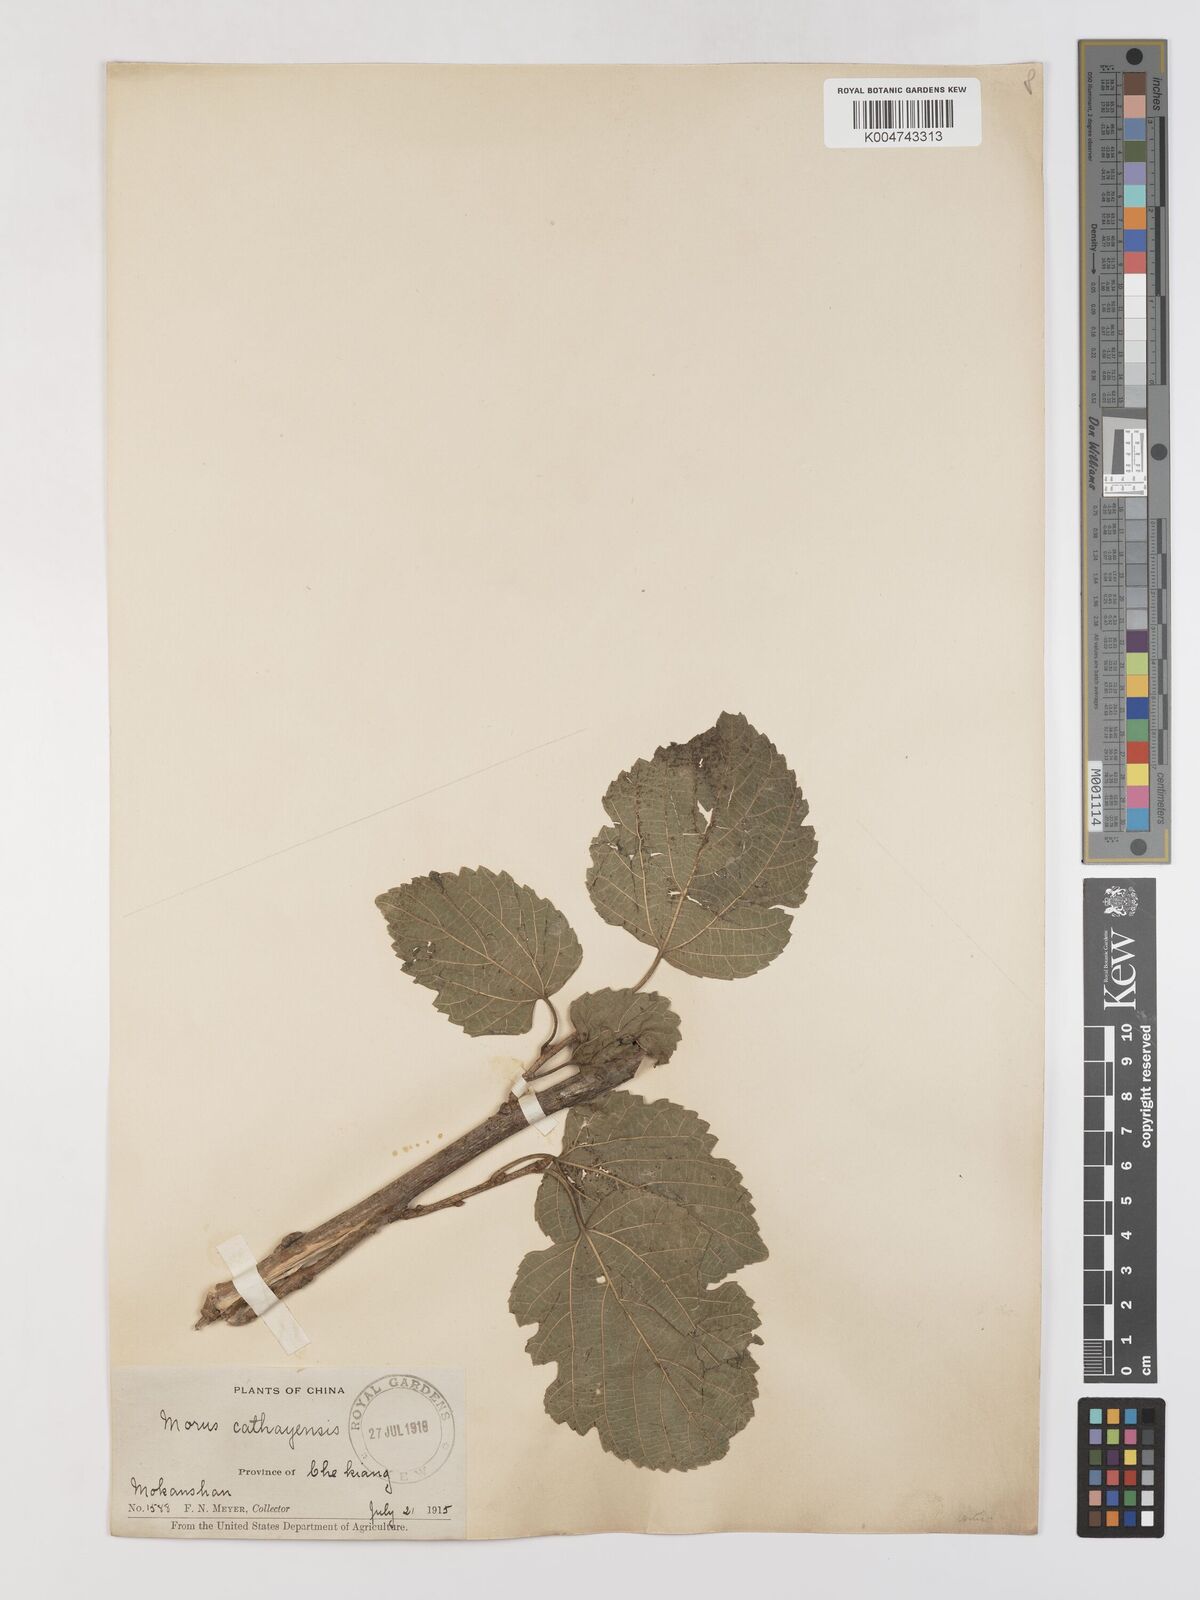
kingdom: Plantae
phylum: Tracheophyta
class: Magnoliopsida
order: Rosales
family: Moraceae
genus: Morus
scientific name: Morus cathayana
